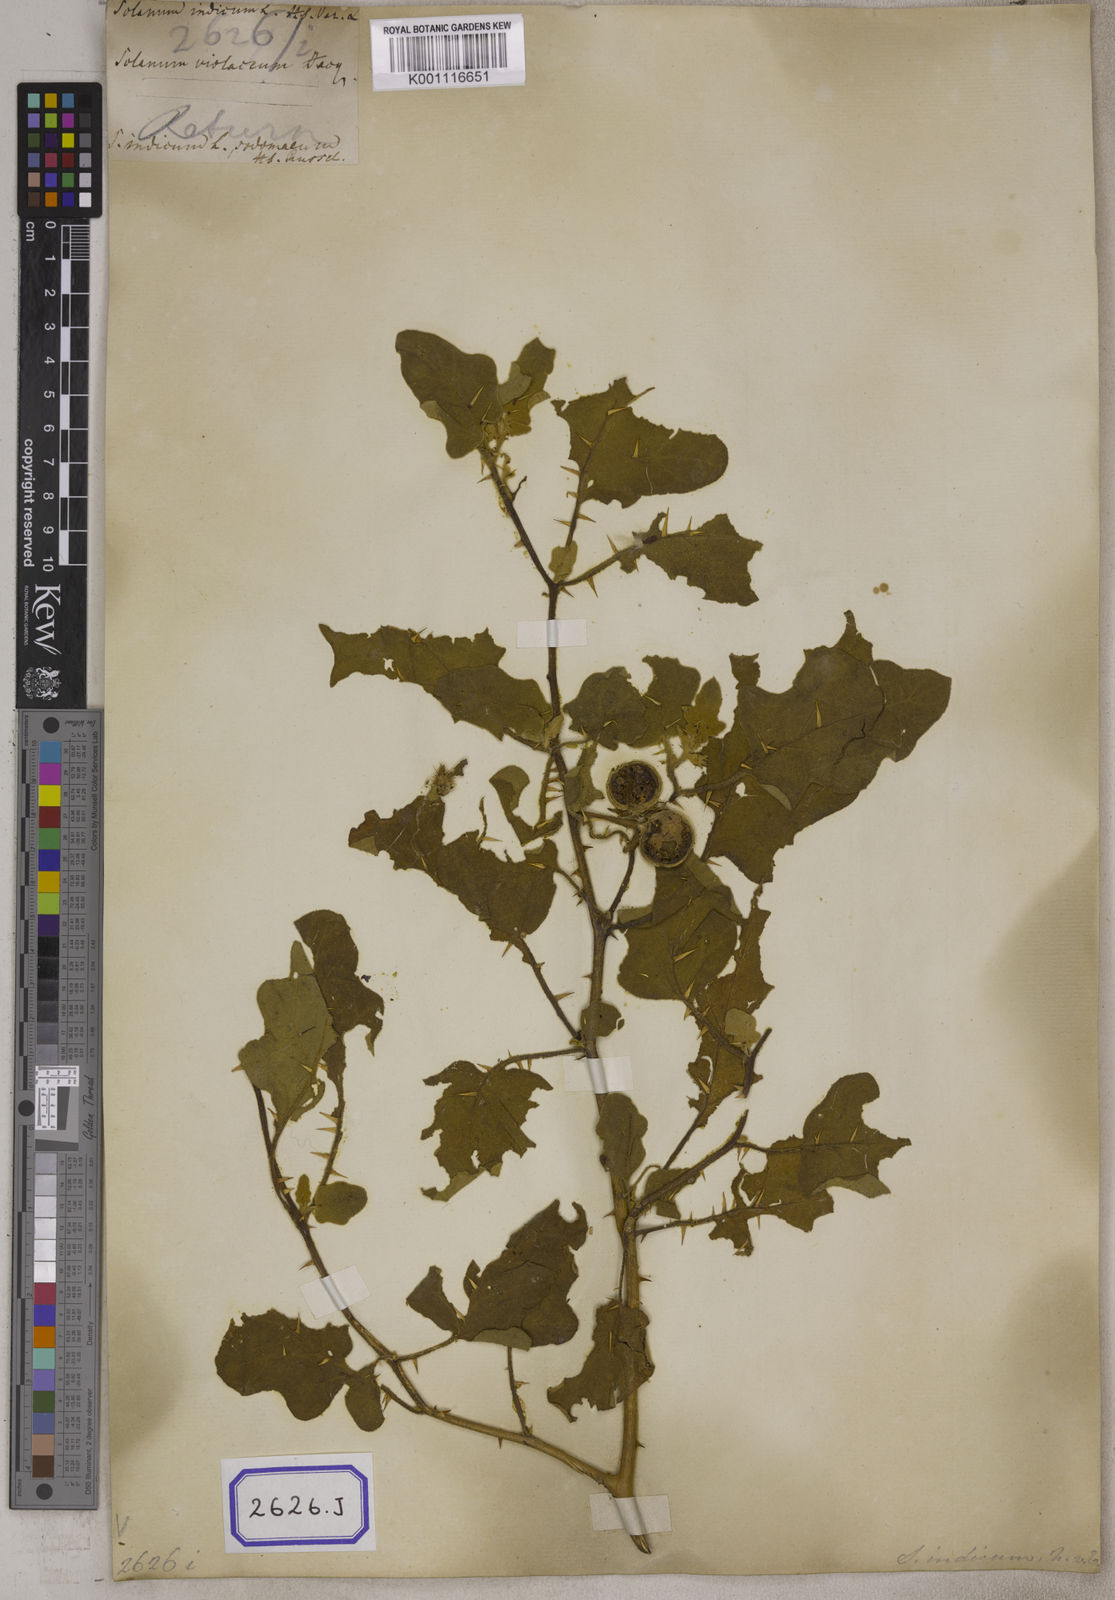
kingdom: Plantae
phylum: Tracheophyta
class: Magnoliopsida
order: Solanales
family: Solanaceae
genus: Solanum
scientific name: Solanum violaceum
